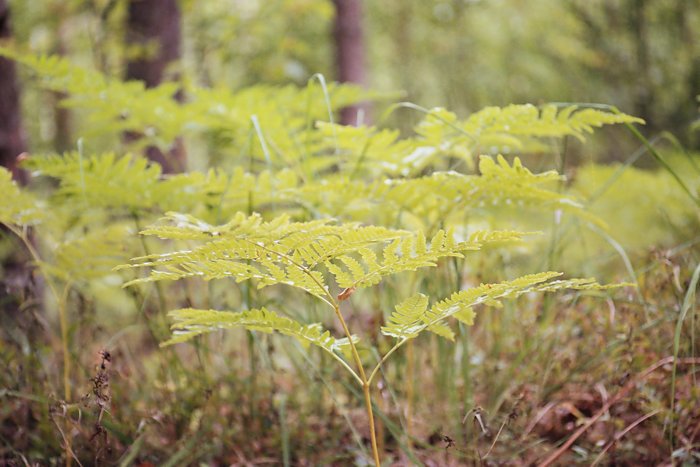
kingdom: Plantae
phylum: Tracheophyta
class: Polypodiopsida
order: Polypodiales
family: Dennstaedtiaceae
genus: Pteridium
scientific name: Pteridium aquilinum
